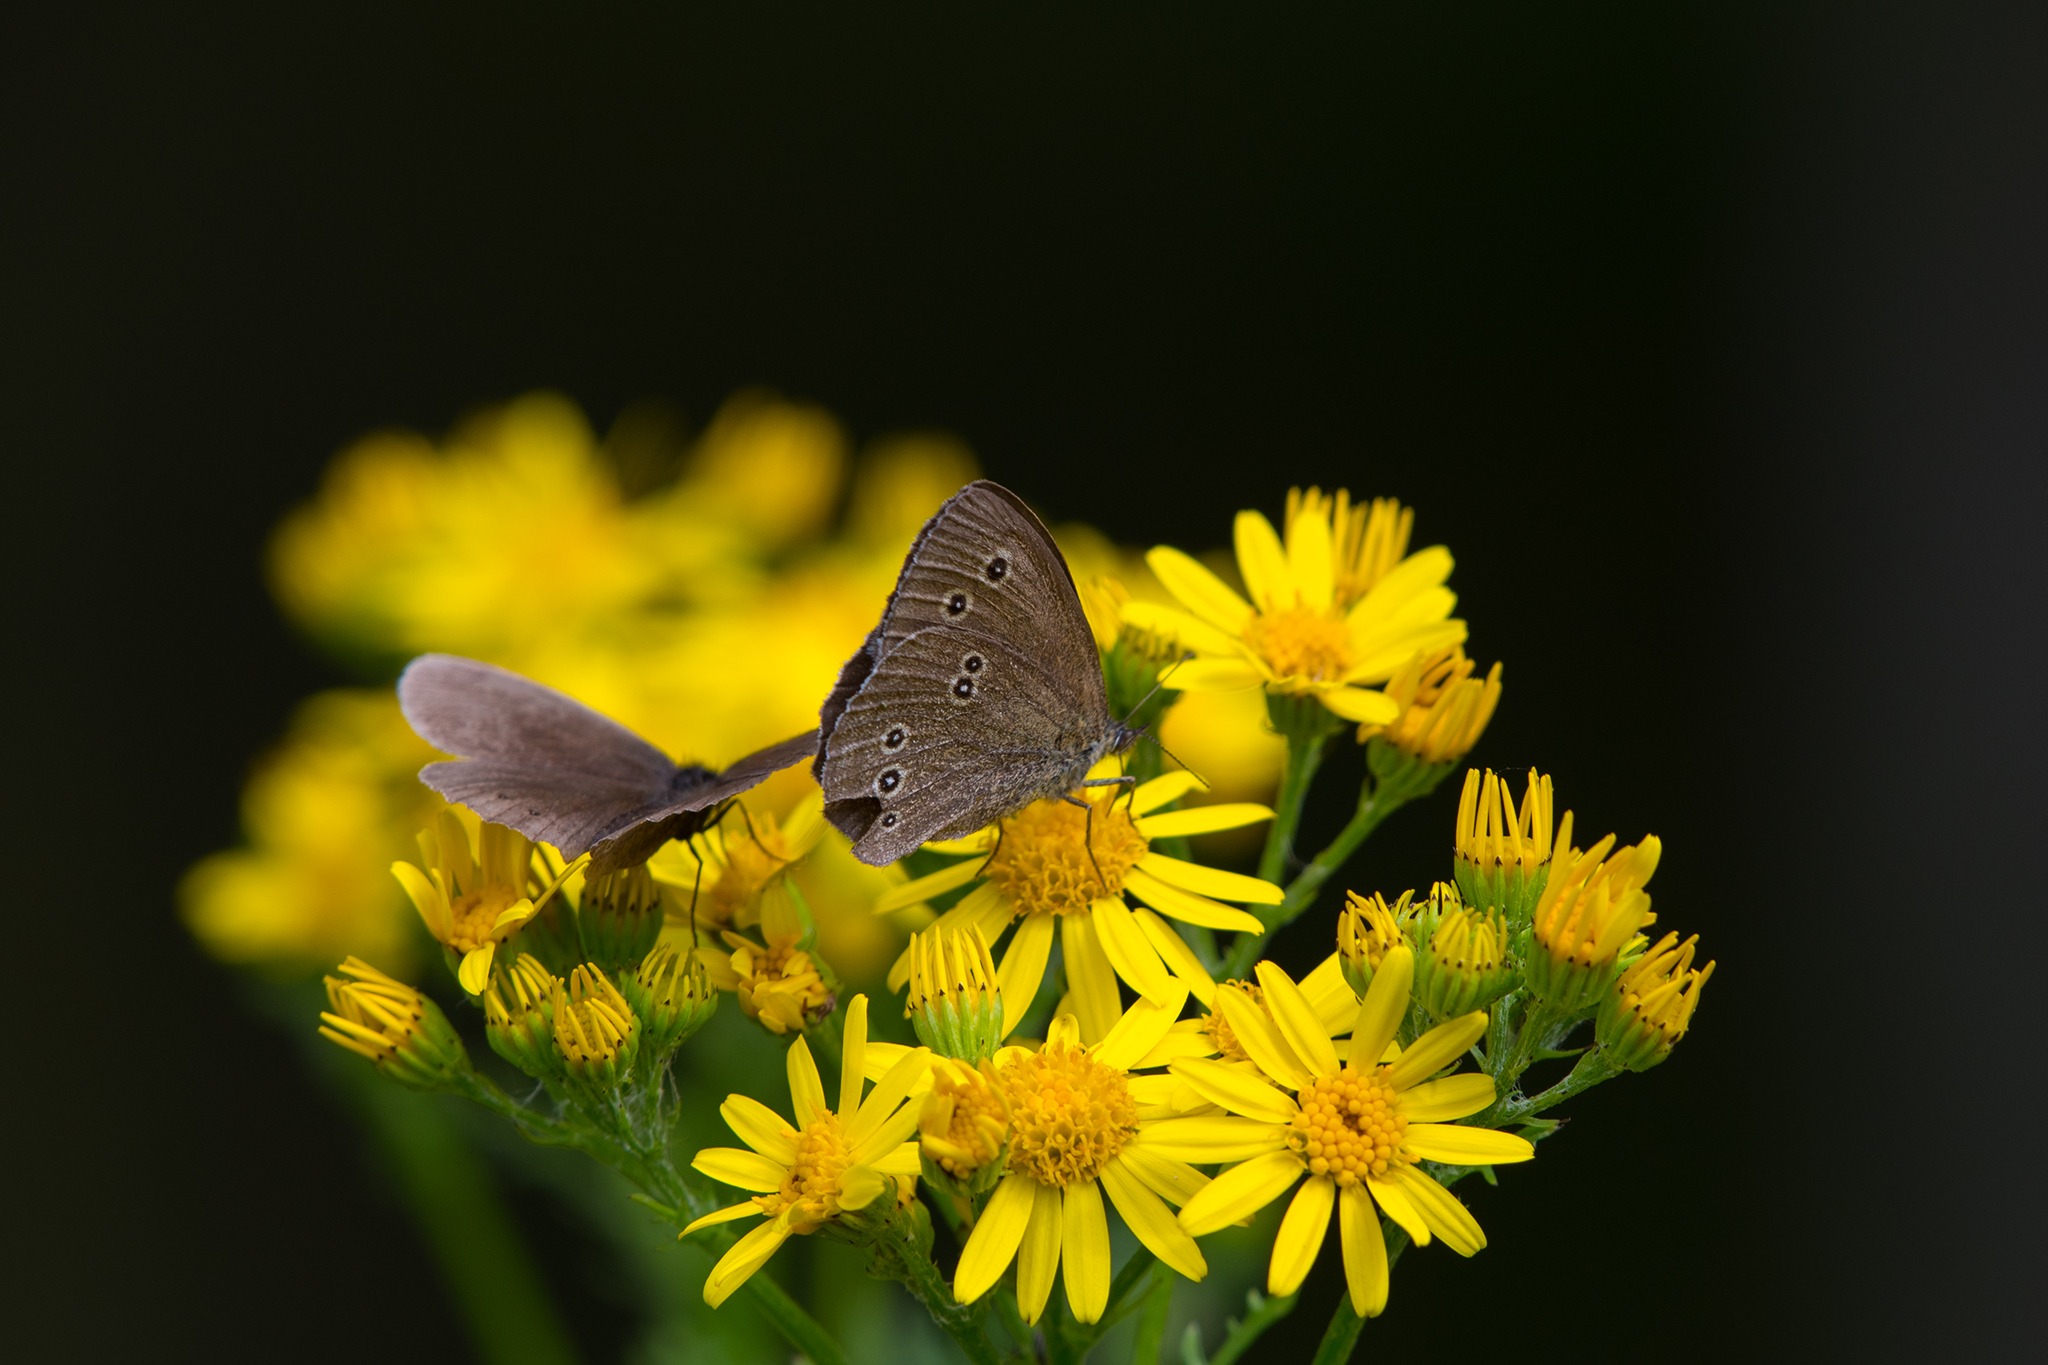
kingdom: Animalia
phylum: Arthropoda
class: Insecta
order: Lepidoptera
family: Nymphalidae
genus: Aphantopus
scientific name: Aphantopus hyperantus
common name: Engrandøje
